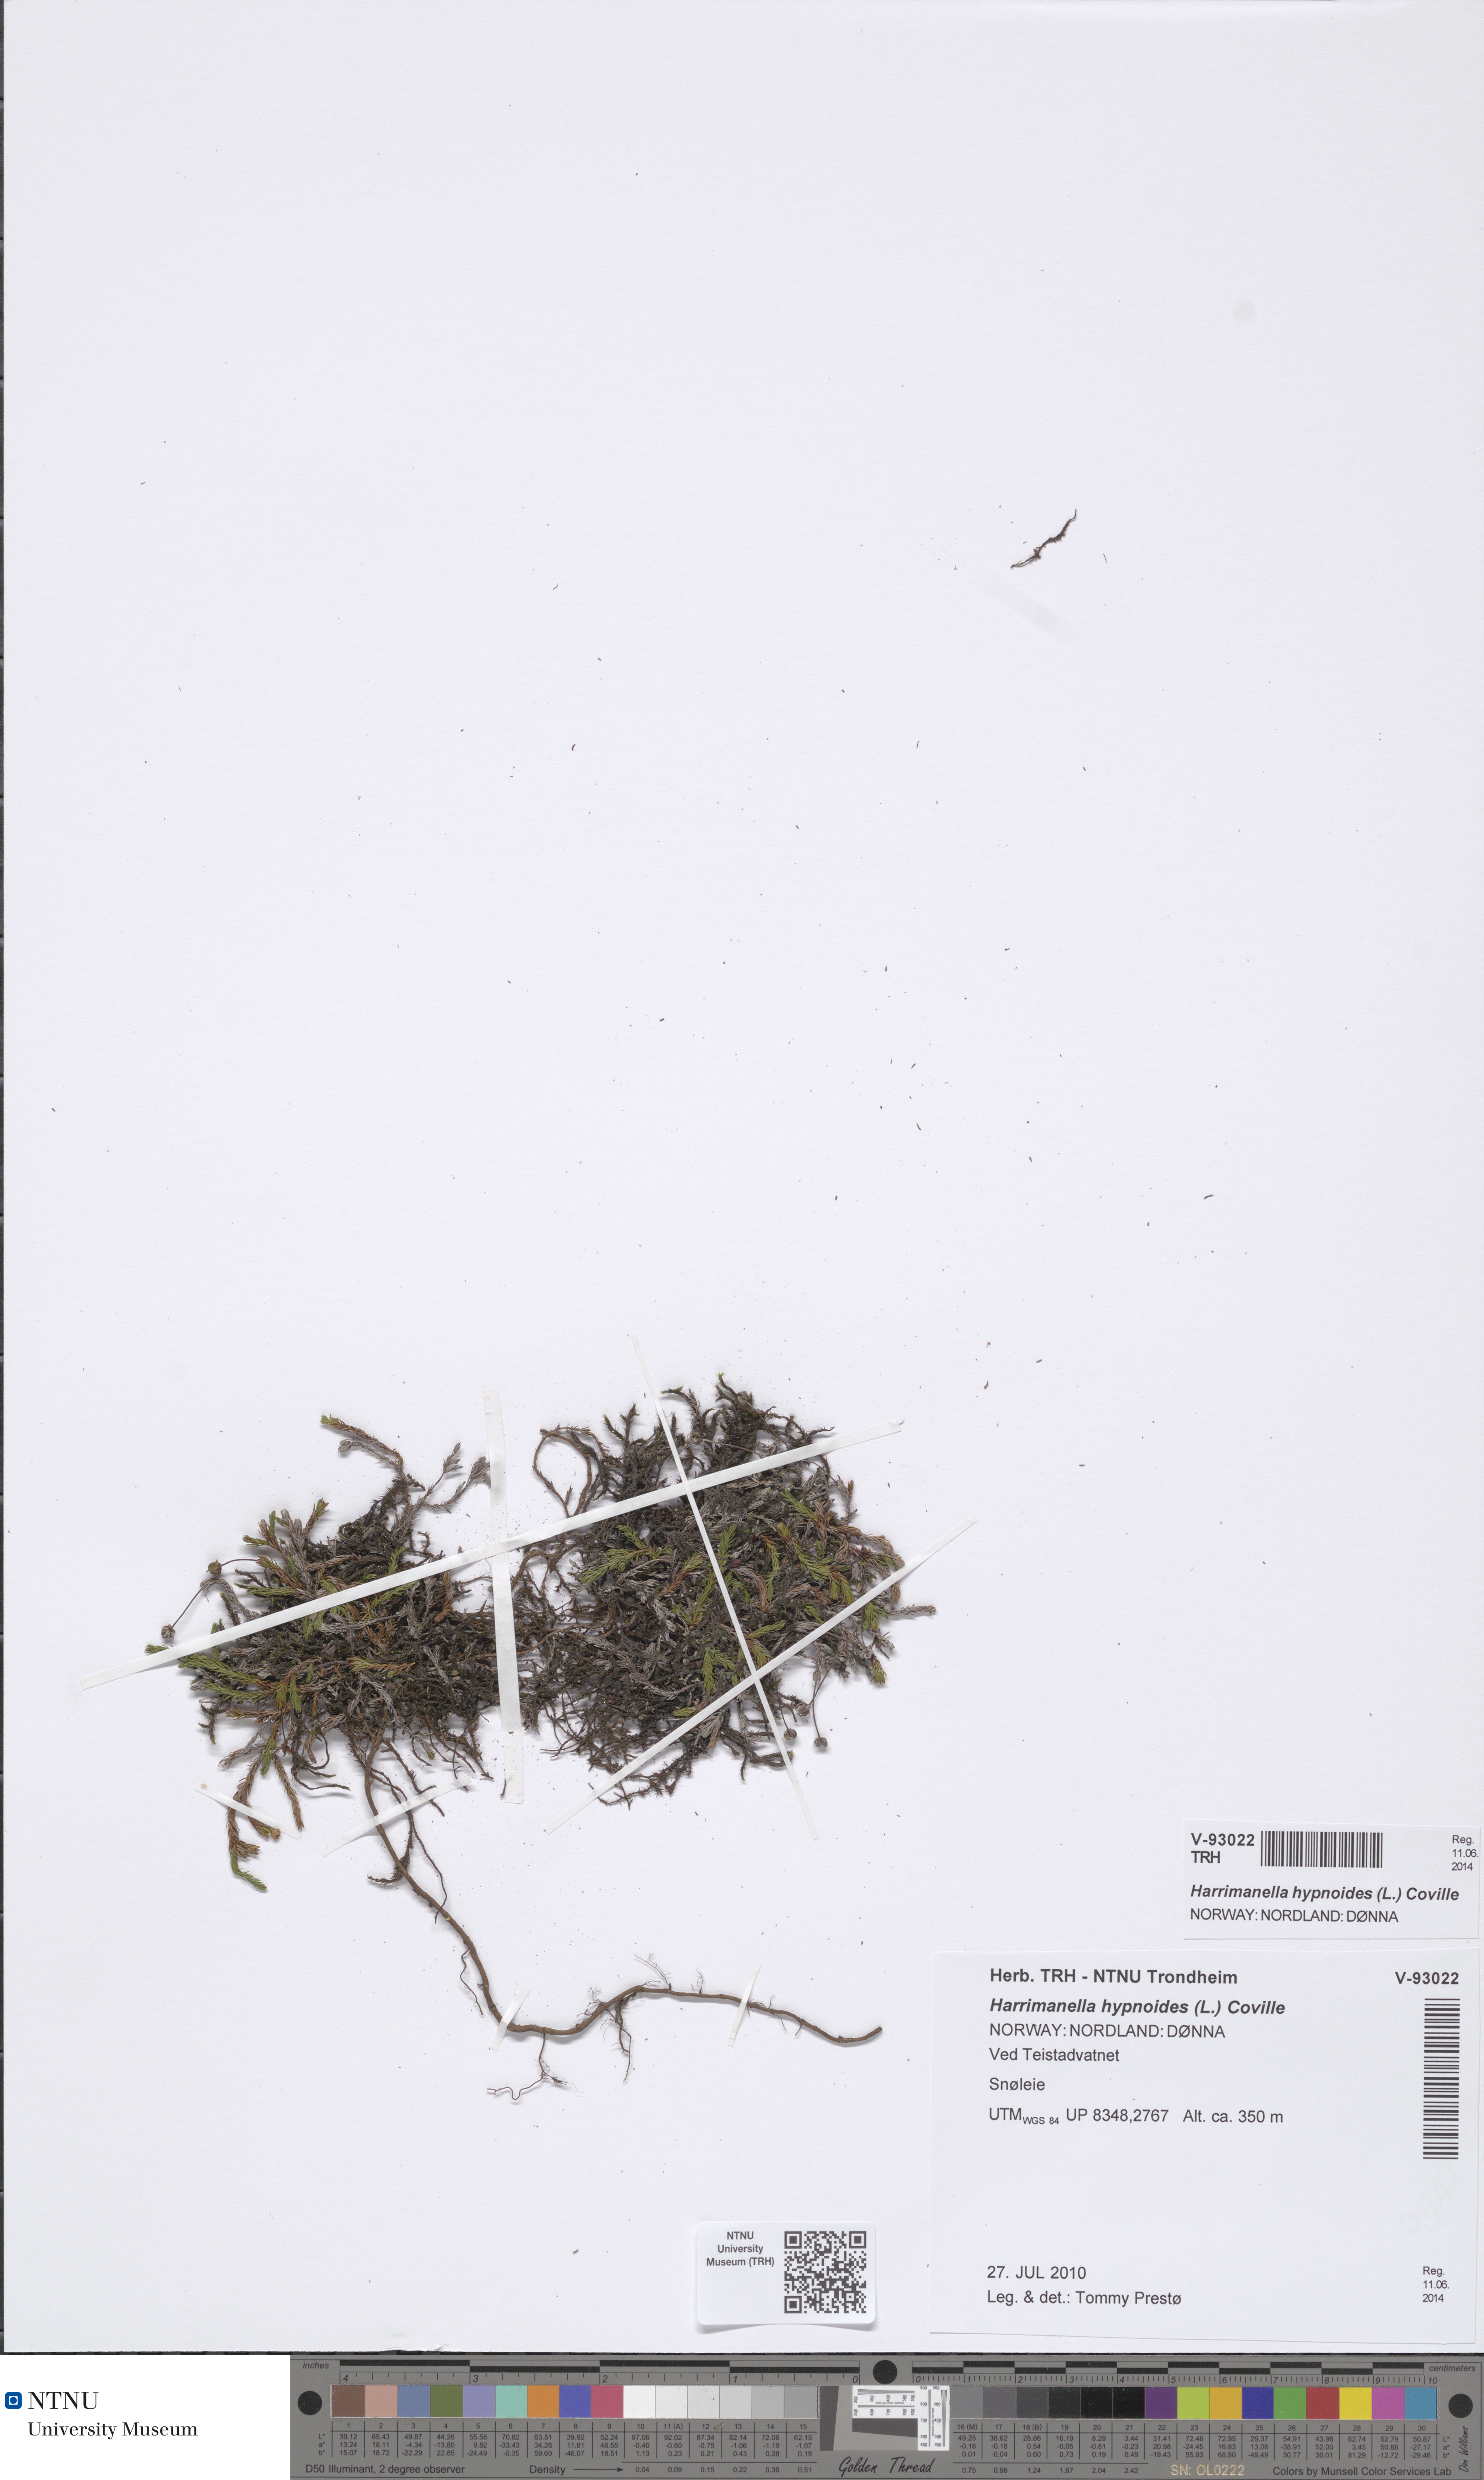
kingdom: Plantae
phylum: Tracheophyta
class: Magnoliopsida
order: Ericales
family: Ericaceae
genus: Harrimanella
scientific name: Harrimanella hypnoides
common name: Moss bell heather
